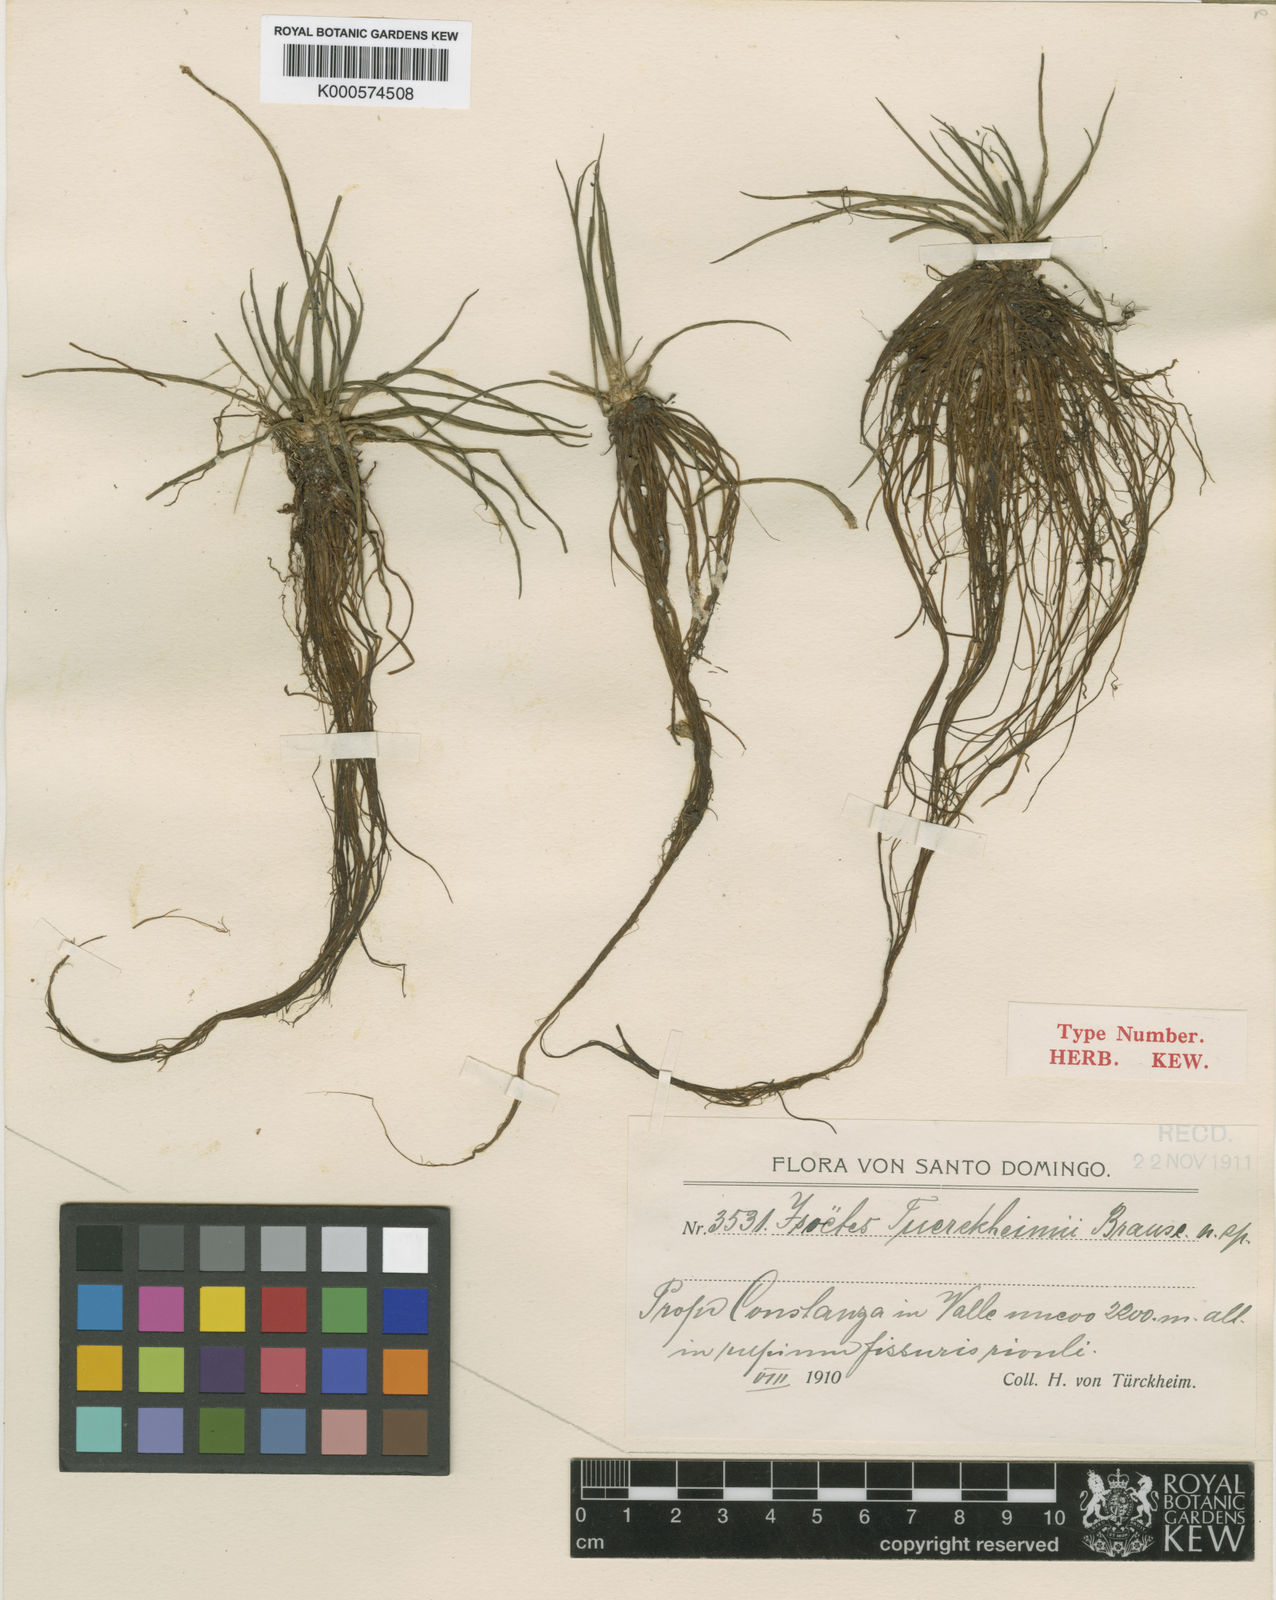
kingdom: Plantae
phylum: Tracheophyta
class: Lycopodiopsida
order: Isoetales
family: Isoetaceae
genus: Isoetes
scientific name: Isoetes tuerckheimii
